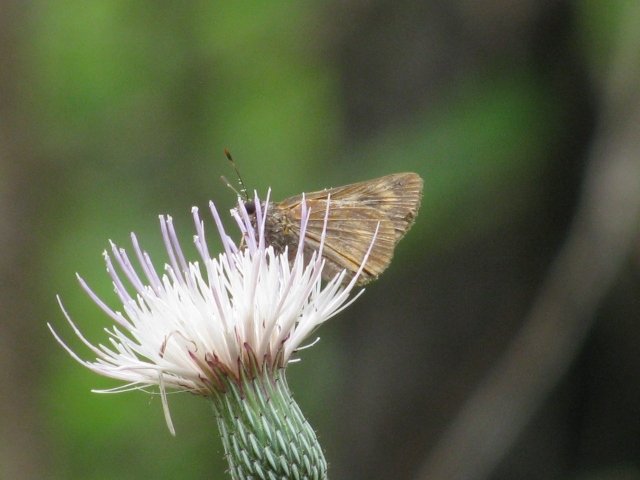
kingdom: Animalia
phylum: Arthropoda
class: Insecta
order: Lepidoptera
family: Hesperiidae
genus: Problema
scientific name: Problema byssus
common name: Byssus Skipper
